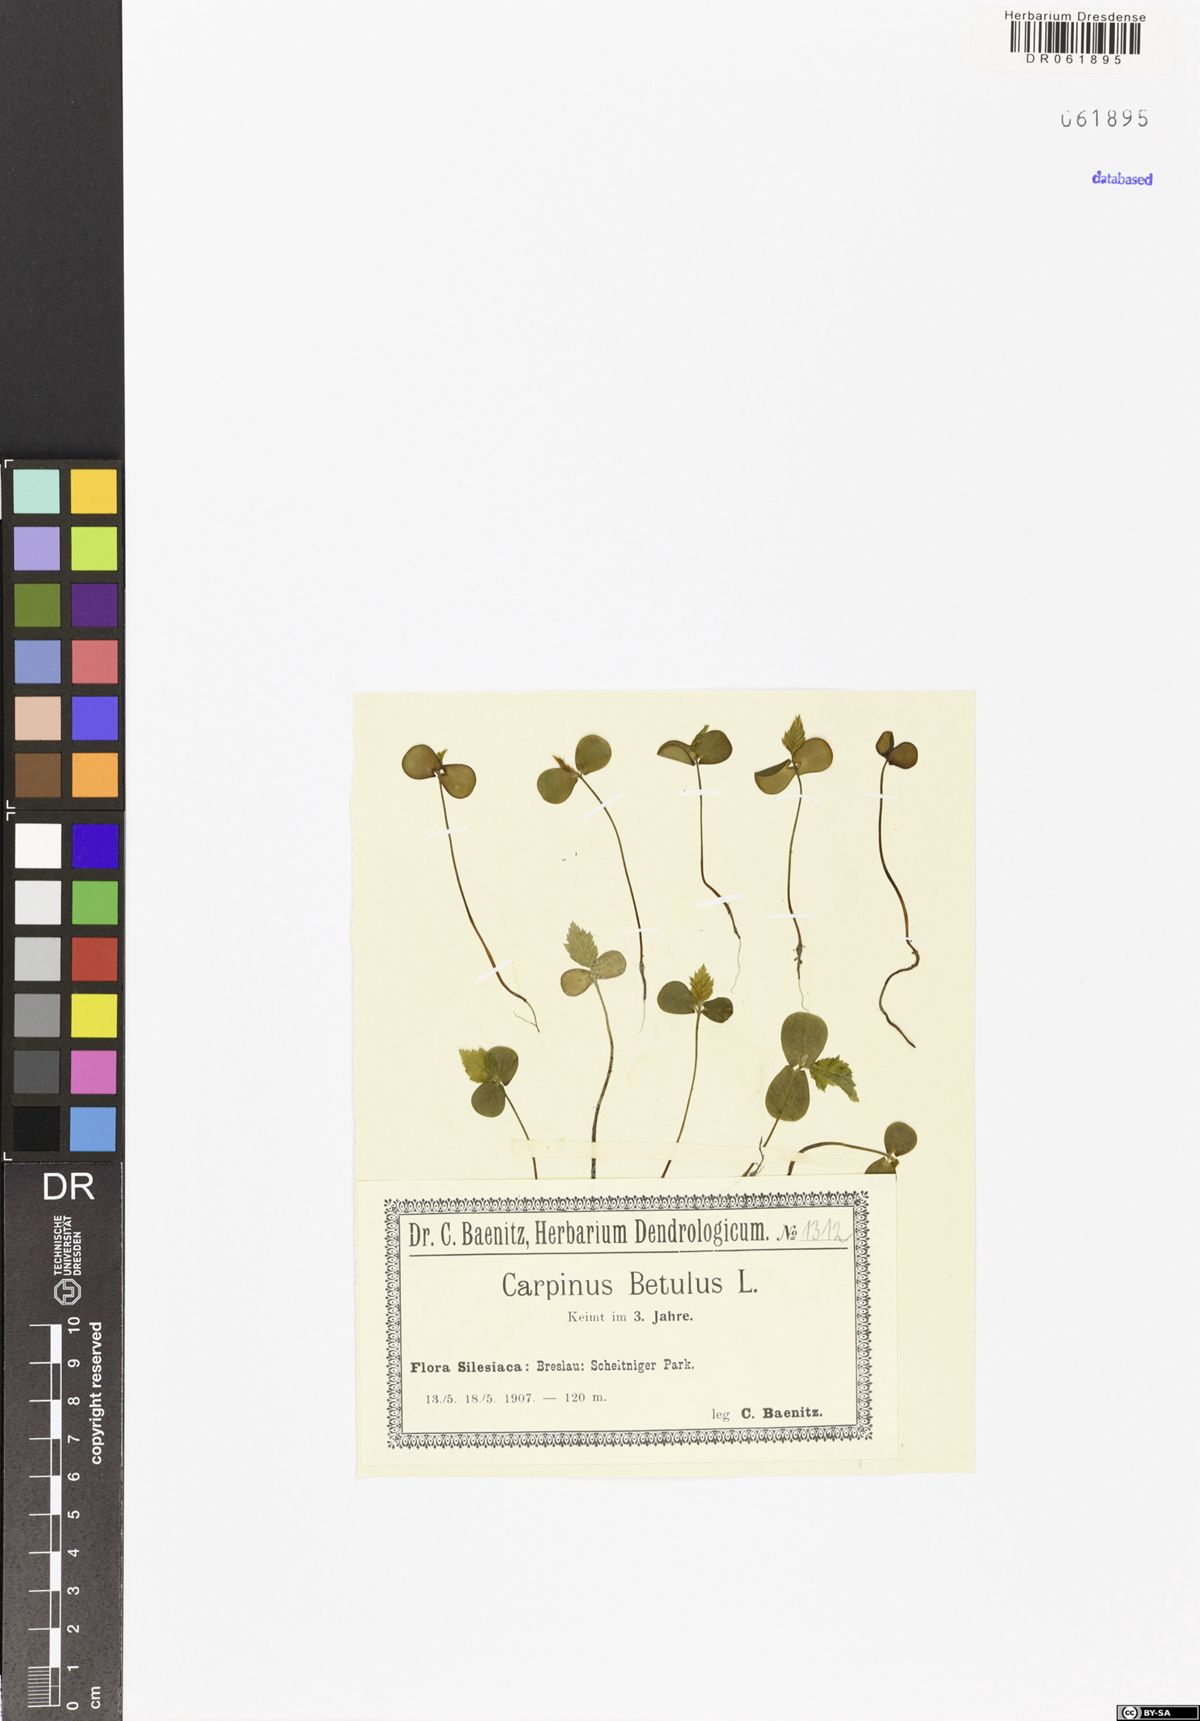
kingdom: Plantae
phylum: Tracheophyta
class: Magnoliopsida
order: Fagales
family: Betulaceae
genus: Carpinus
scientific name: Carpinus betulus
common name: Hornbeam
